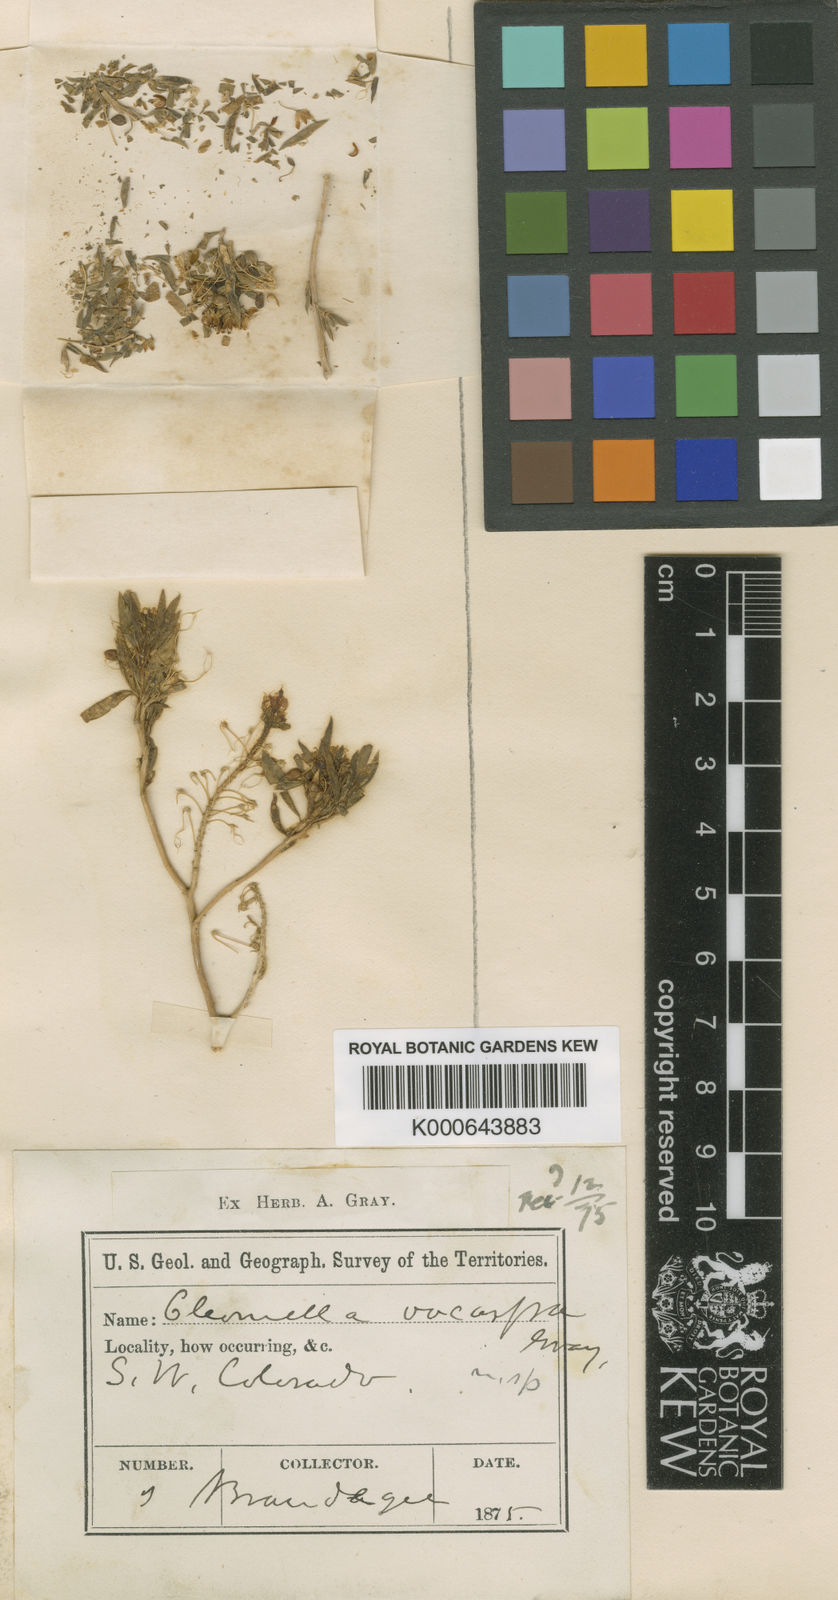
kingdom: Plantae
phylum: Tracheophyta
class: Magnoliopsida
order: Brassicales
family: Cleomaceae
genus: Cleomella
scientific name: Cleomella plocasperma
